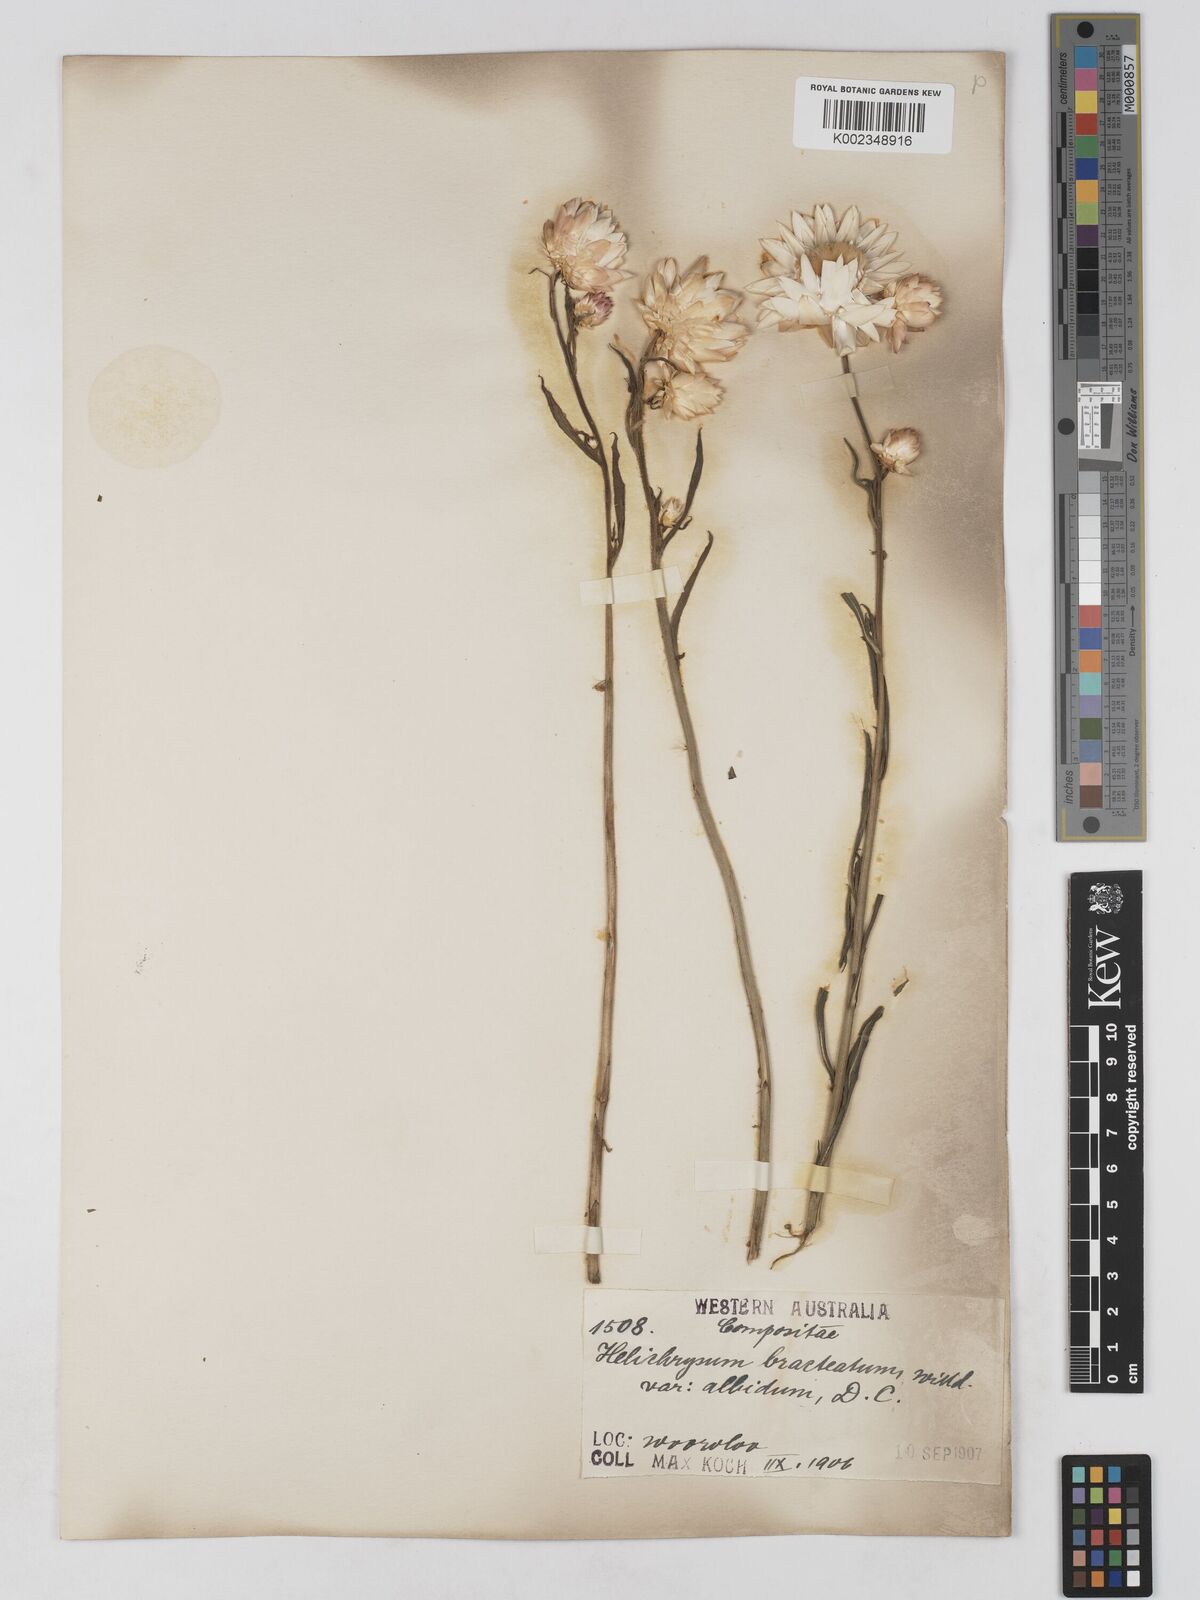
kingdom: Plantae
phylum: Tracheophyta
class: Magnoliopsida
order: Asterales
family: Asteraceae
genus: Xerochrysum
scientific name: Xerochrysum bracteatum
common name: Bracted strawflower
